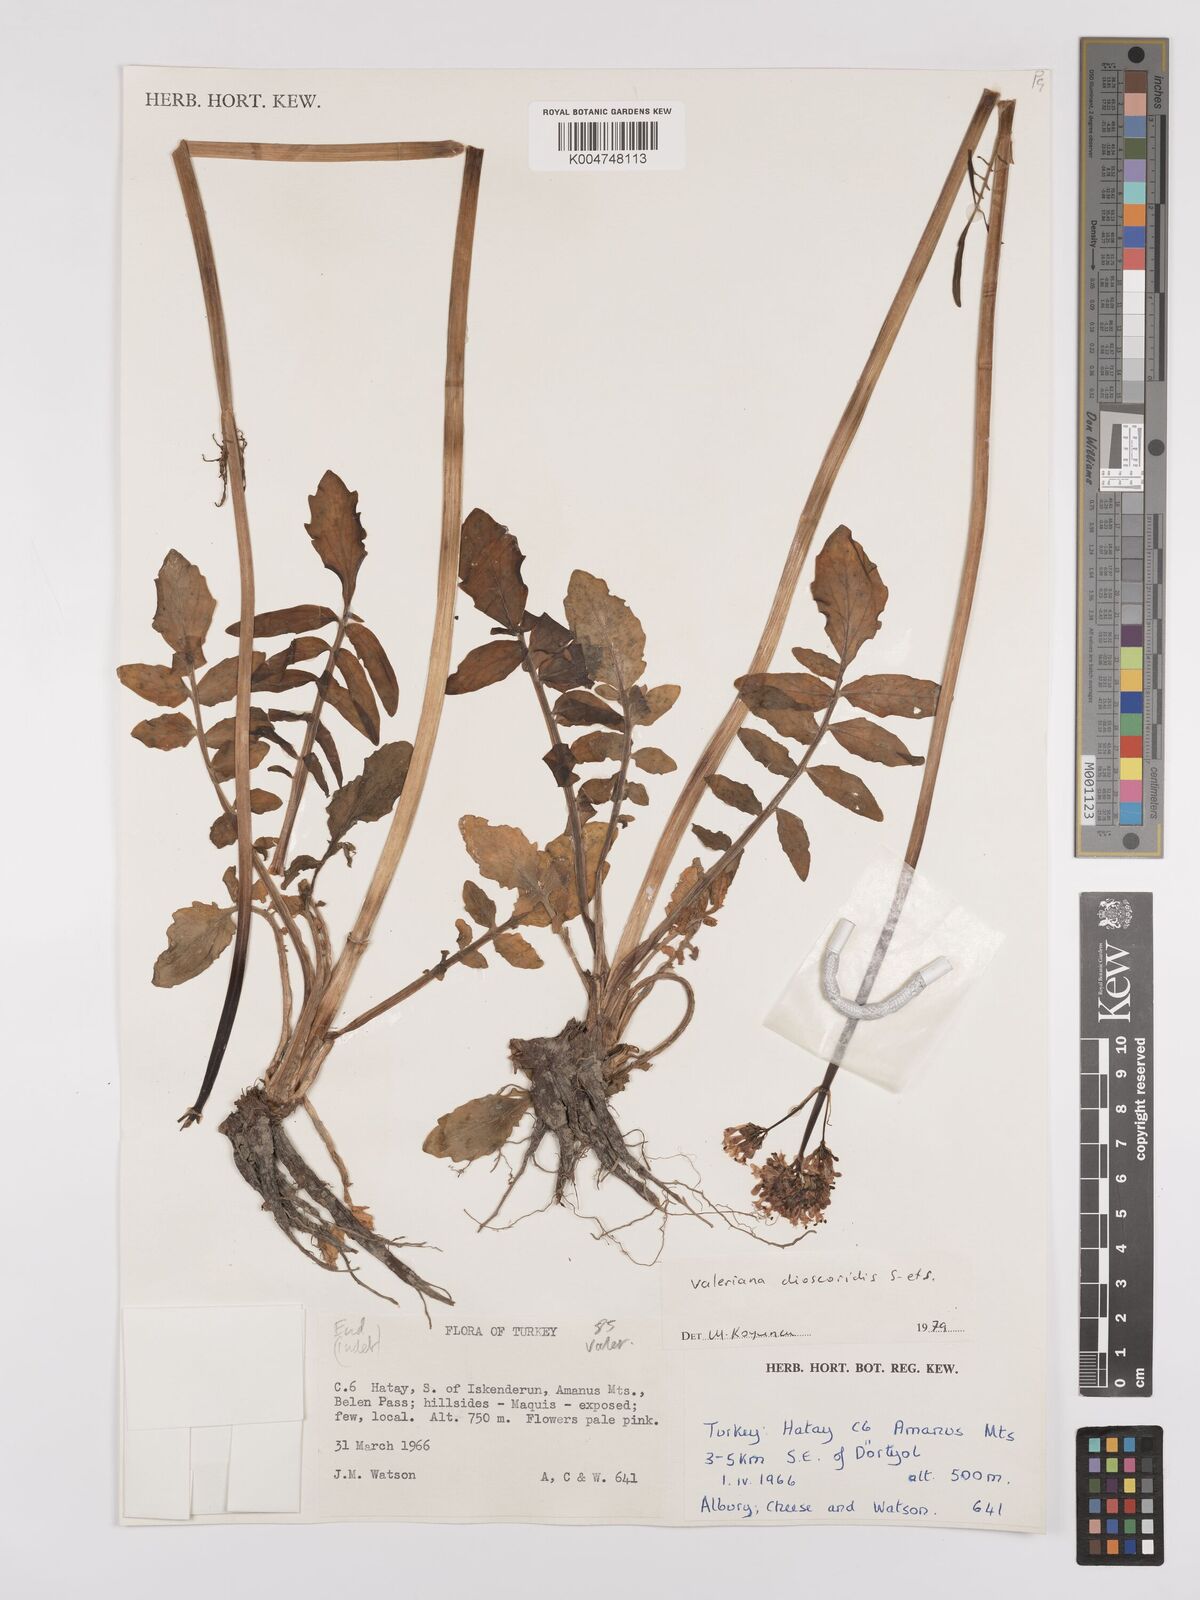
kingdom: Plantae
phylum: Tracheophyta
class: Magnoliopsida
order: Dipsacales
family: Caprifoliaceae
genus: Valeriana
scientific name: Valeriana
